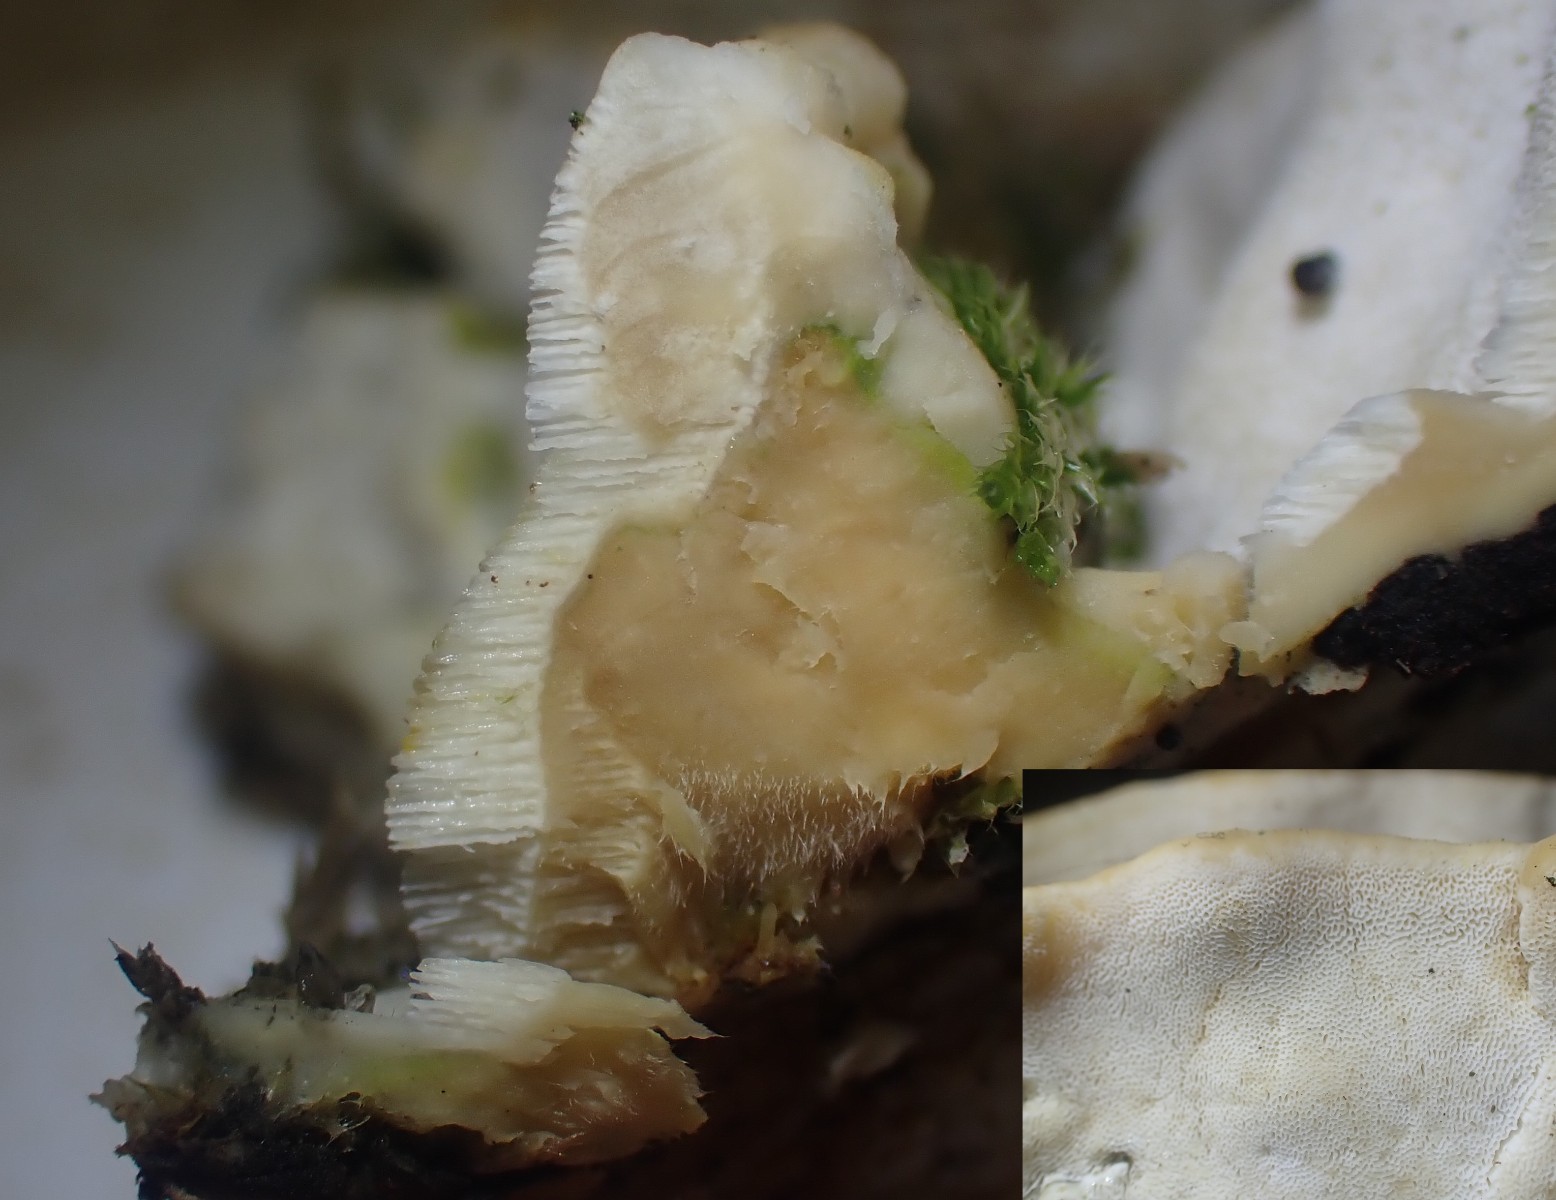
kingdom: Fungi
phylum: Basidiomycota
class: Agaricomycetes
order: Hymenochaetales
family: Oxyporaceae
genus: Oxyporus
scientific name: Oxyporus populinus
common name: sammenvokset trylleporesvamp
